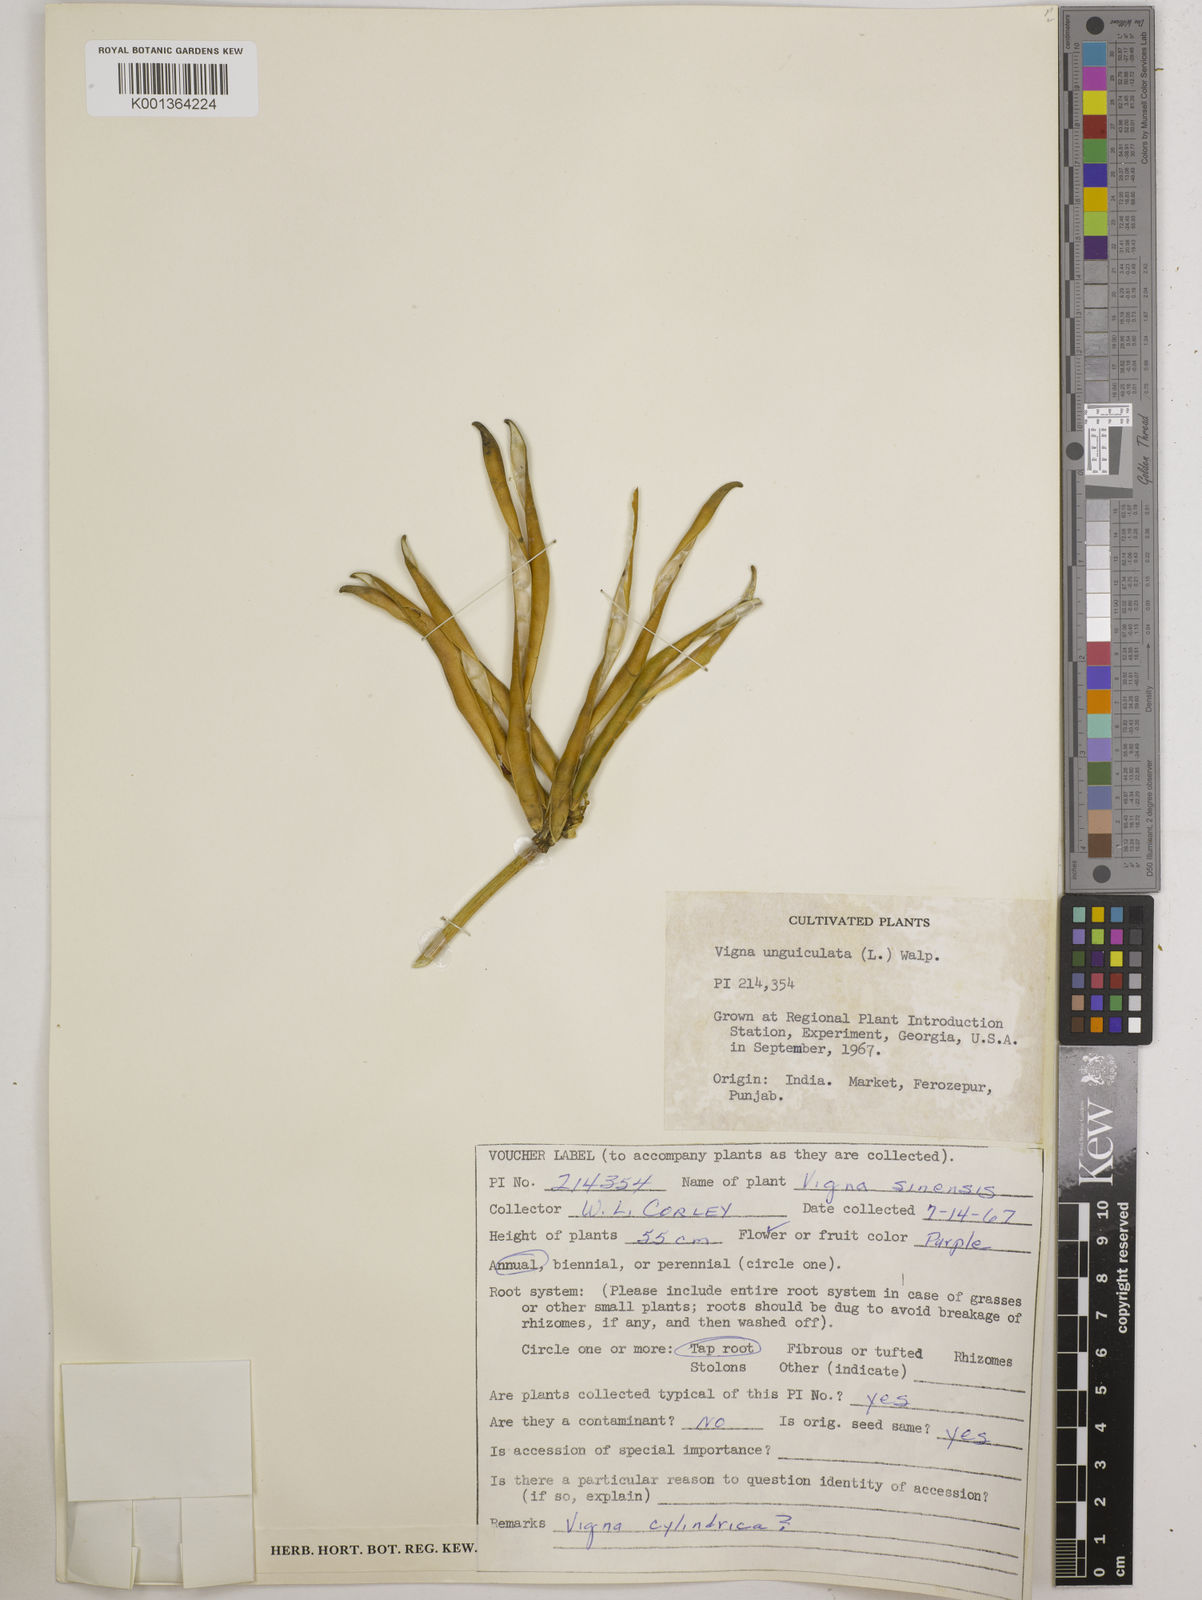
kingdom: Plantae
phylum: Tracheophyta
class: Magnoliopsida
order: Fabales
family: Fabaceae
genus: Vigna
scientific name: Vigna
